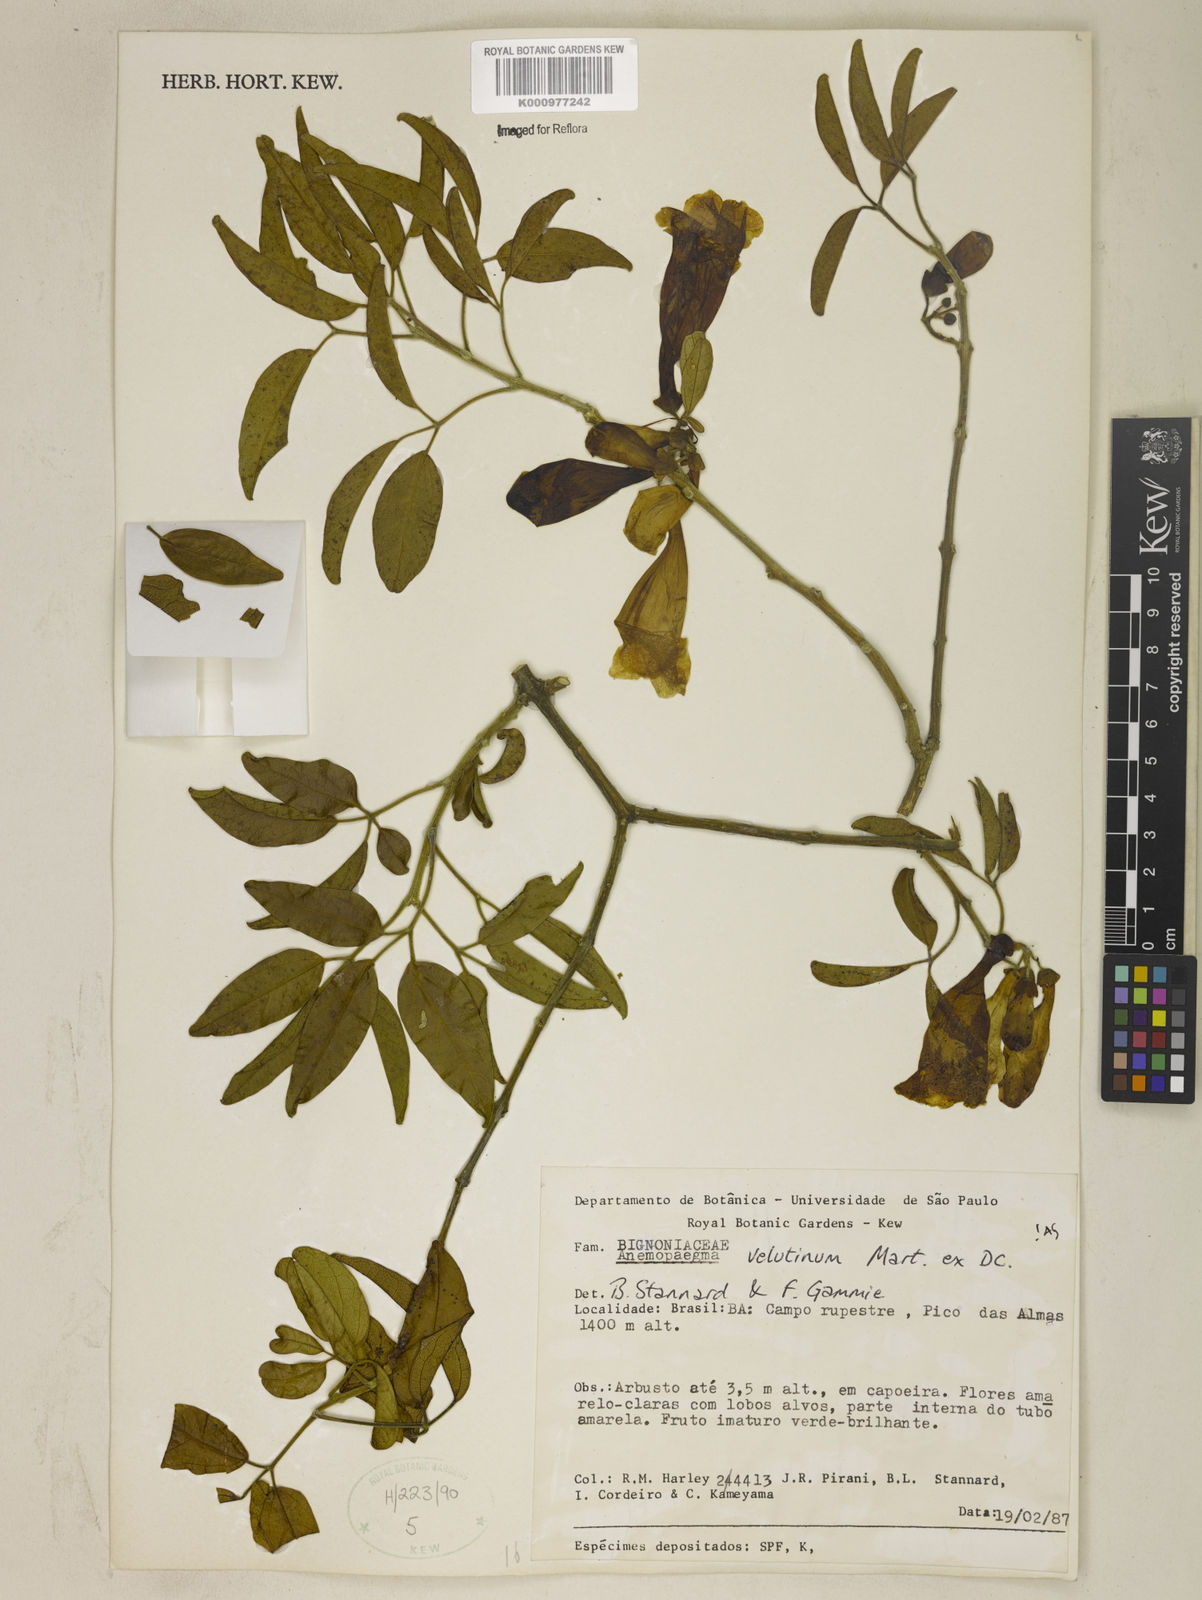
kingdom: Plantae
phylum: Tracheophyta
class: Magnoliopsida
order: Lamiales
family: Bignoniaceae
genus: Anemopaegma
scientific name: Anemopaegma velutinum
